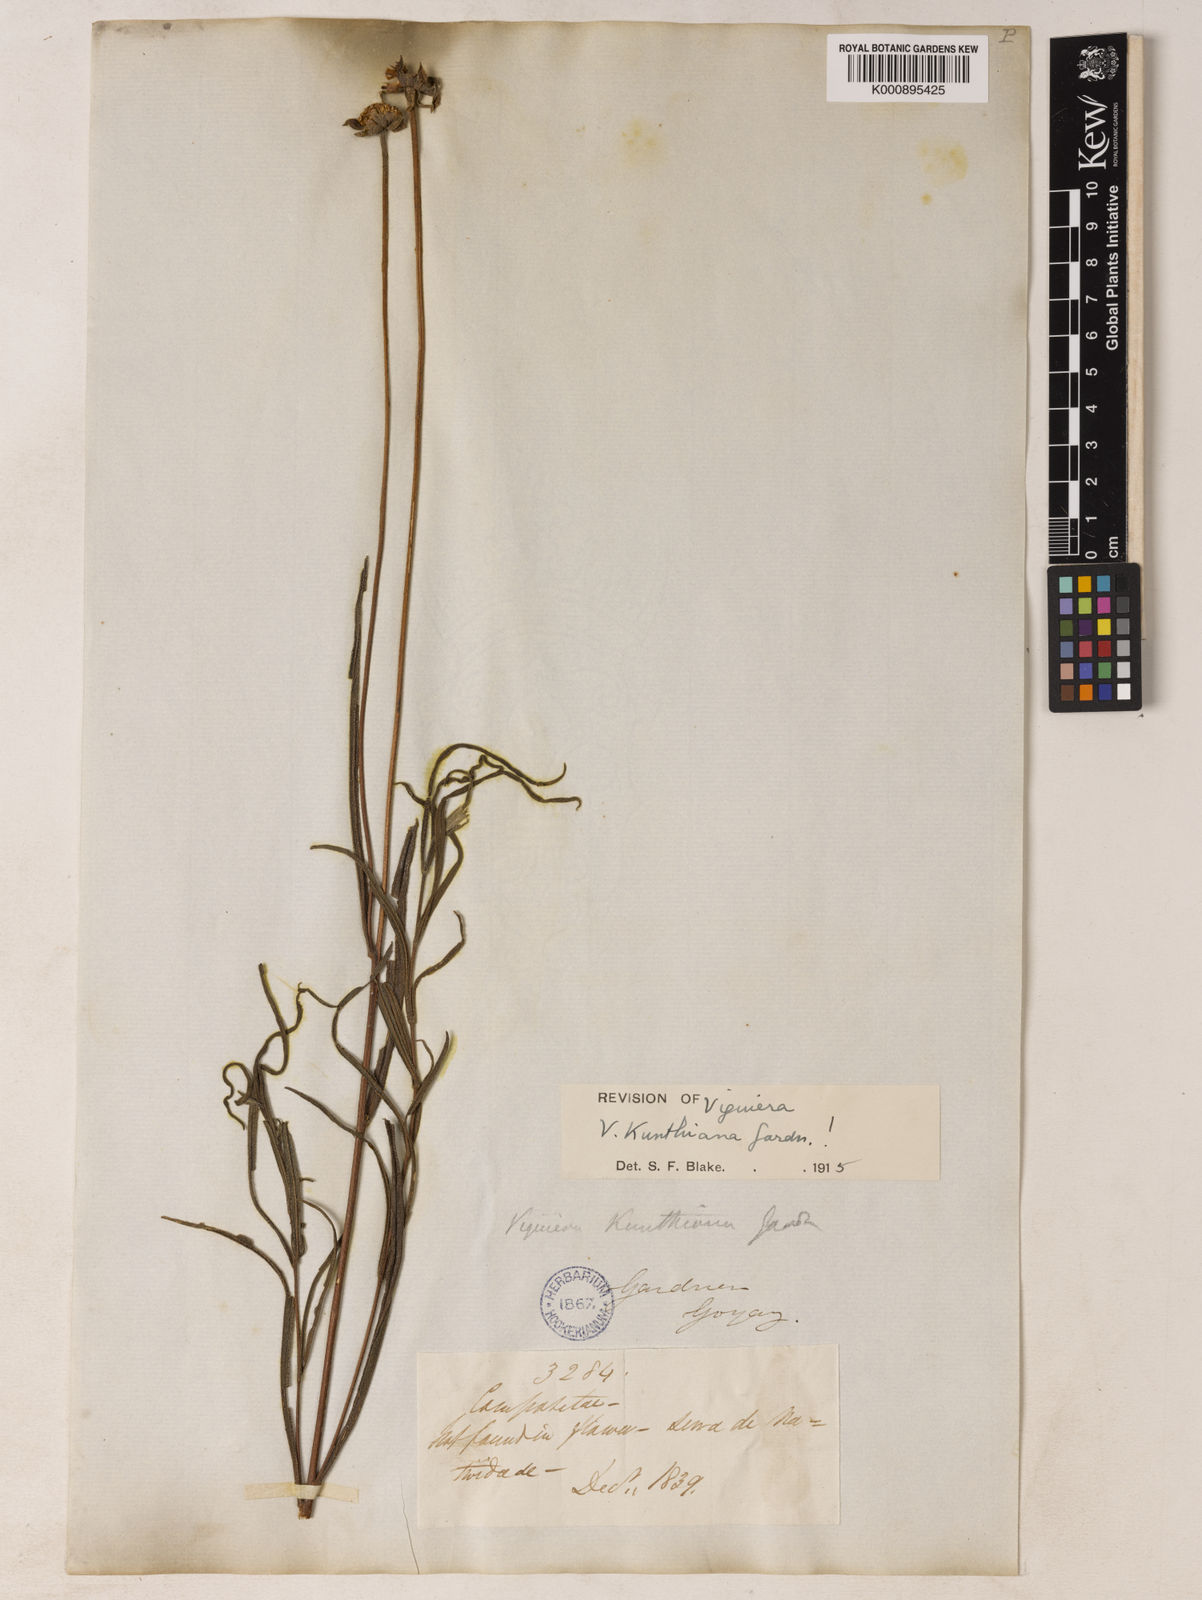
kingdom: Plantae
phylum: Tracheophyta
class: Magnoliopsida
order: Asterales
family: Asteraceae
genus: Aldama
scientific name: Aldama kunthiana
